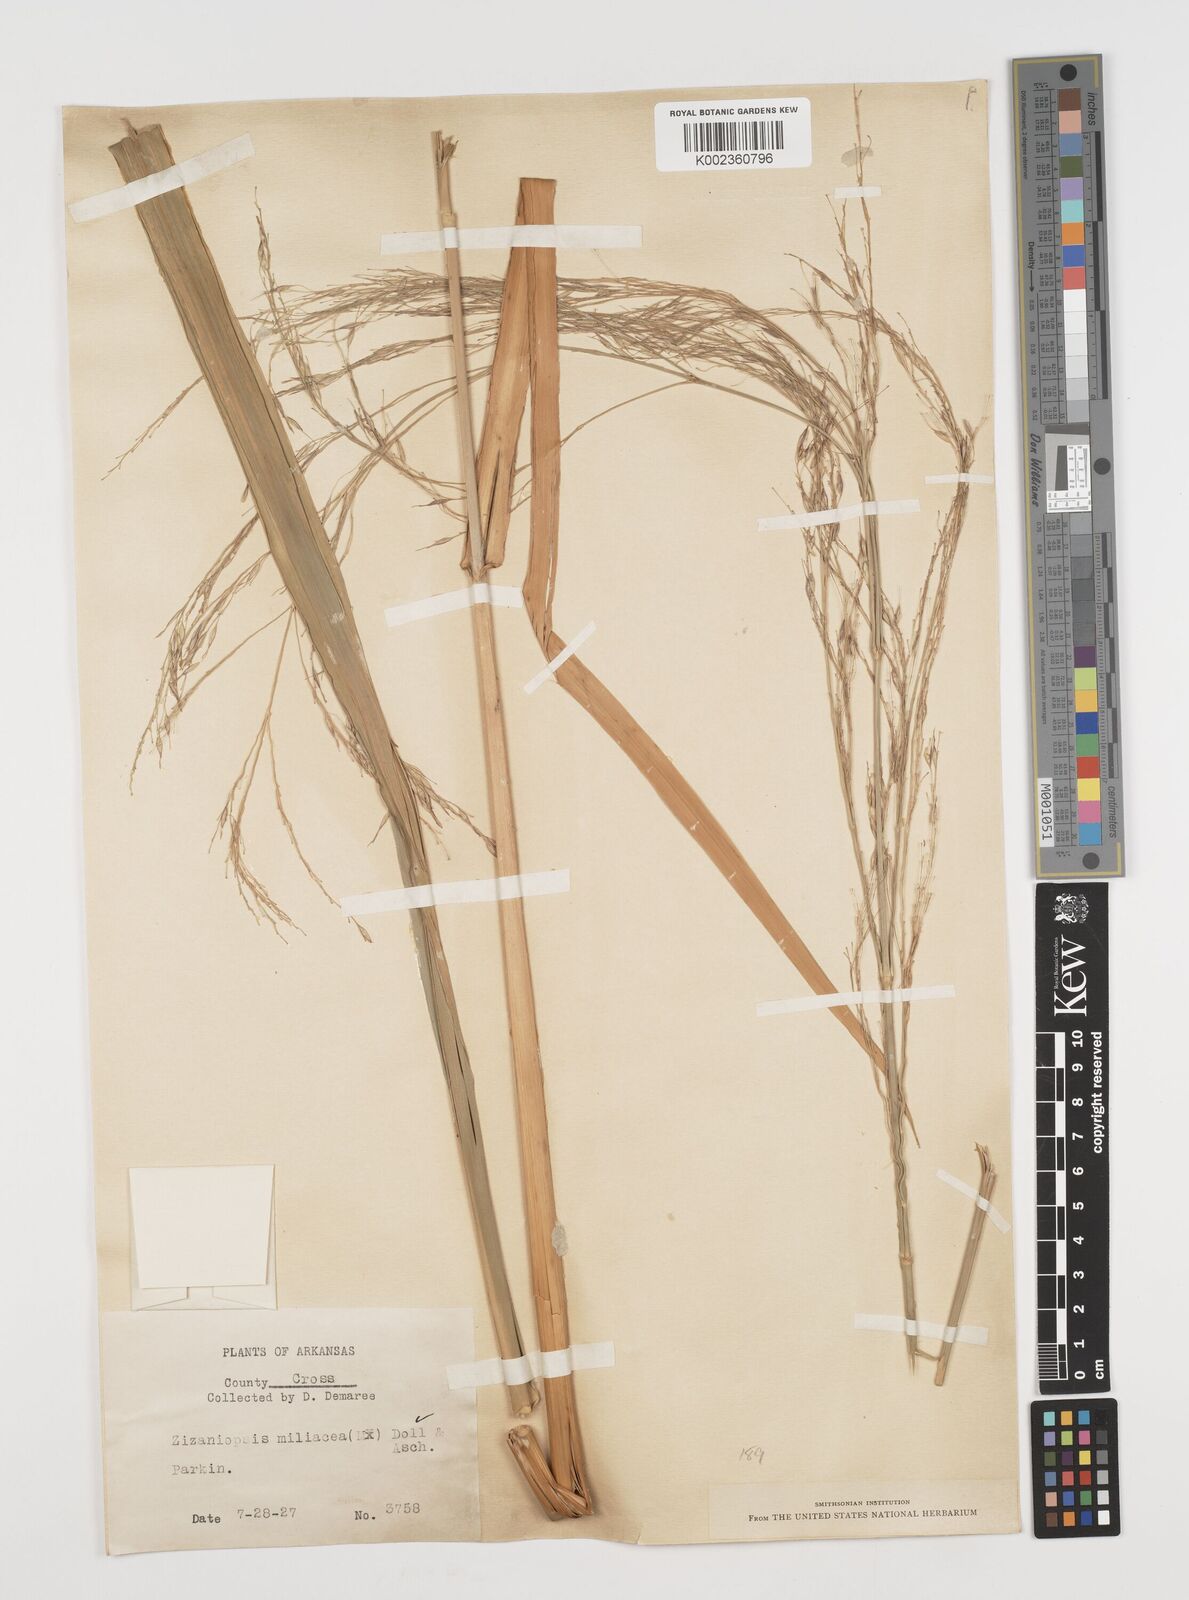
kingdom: Plantae
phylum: Tracheophyta
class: Liliopsida
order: Poales
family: Poaceae
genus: Zizaniopsis
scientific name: Zizaniopsis miliacea
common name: Giant-cutgrass
